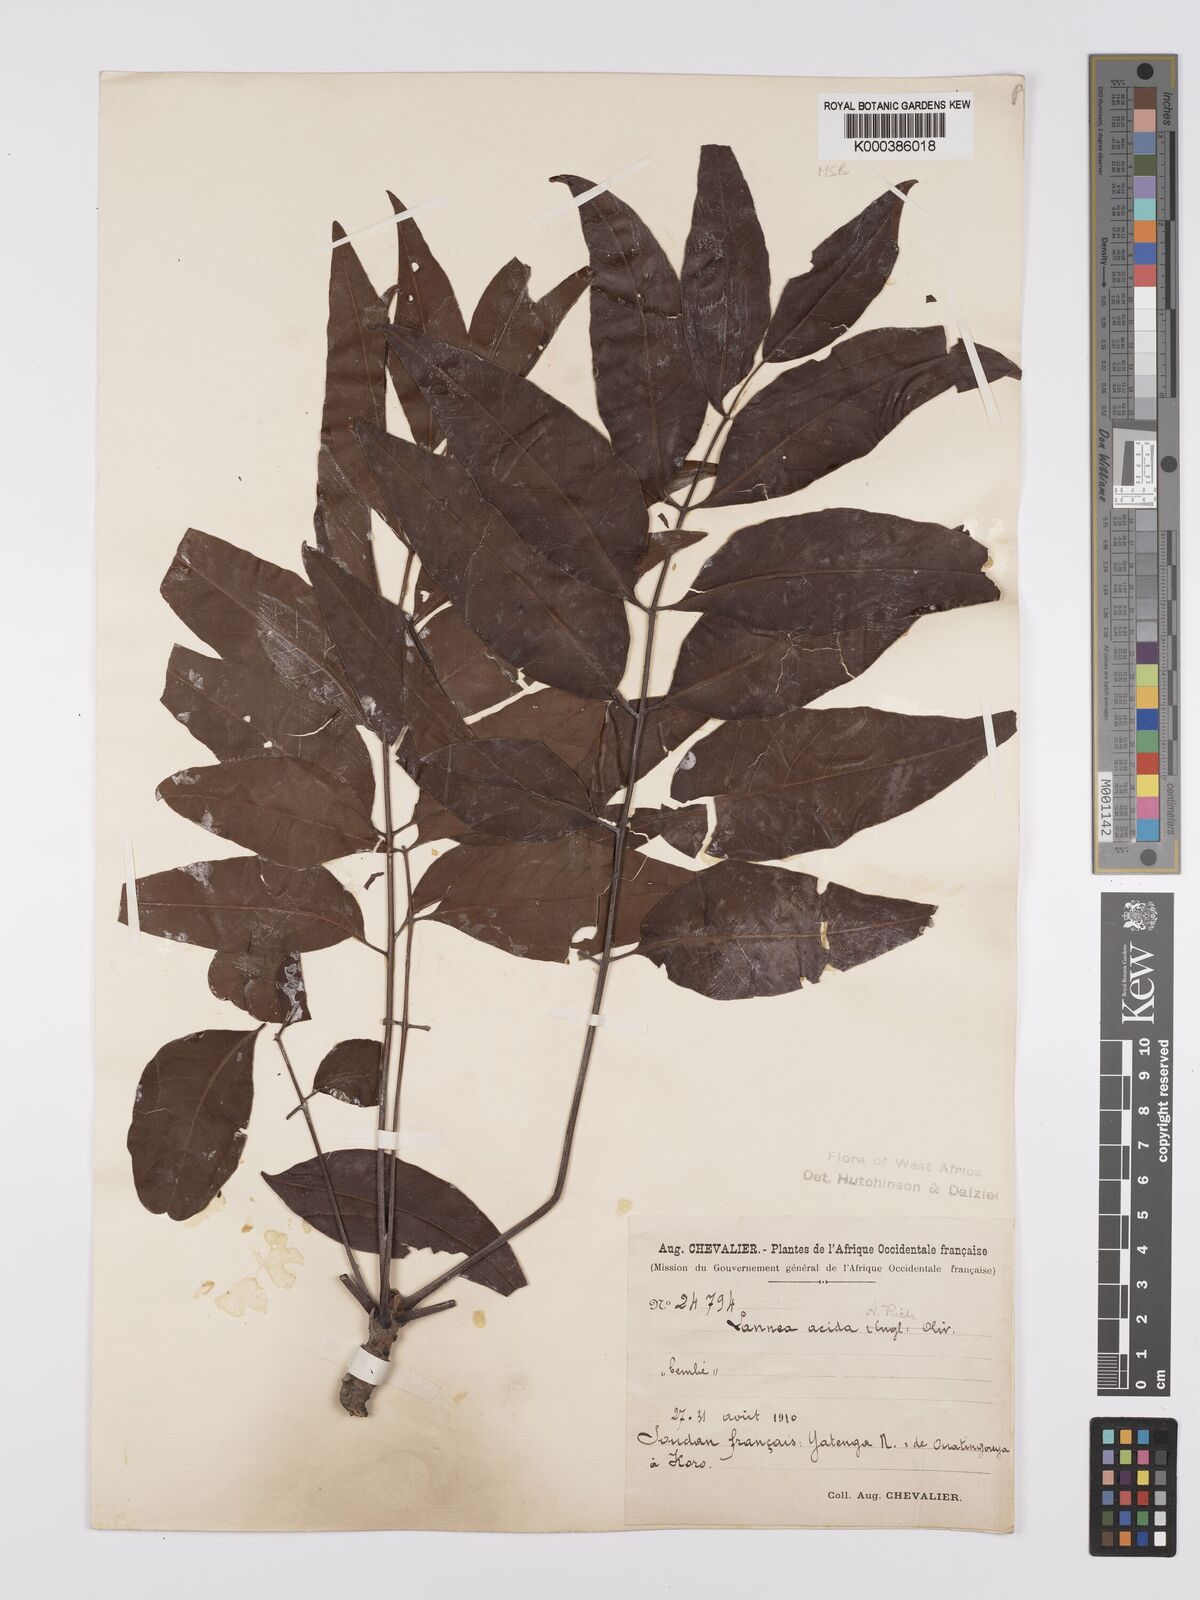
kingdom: Plantae
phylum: Tracheophyta
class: Magnoliopsida
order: Sapindales
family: Anacardiaceae
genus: Lannea
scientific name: Lannea acida
